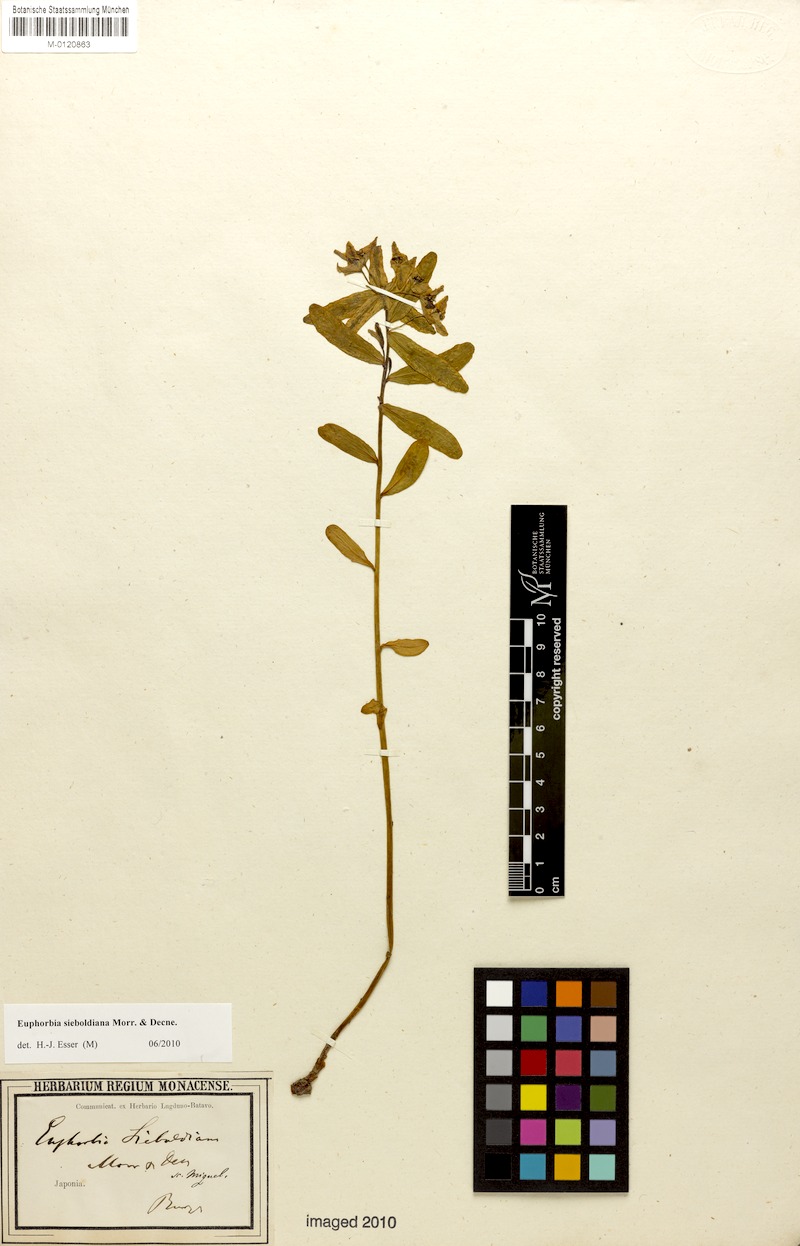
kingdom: Plantae
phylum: Tracheophyta
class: Magnoliopsida
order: Malpighiales
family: Euphorbiaceae
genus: Euphorbia
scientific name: Euphorbia sieboldiana
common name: Siebold's spurge
